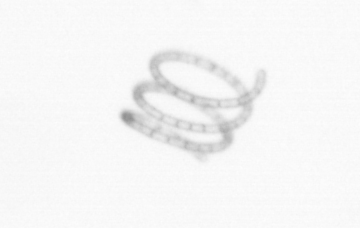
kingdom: Chromista
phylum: Ochrophyta
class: Bacillariophyceae
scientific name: Bacillariophyceae
